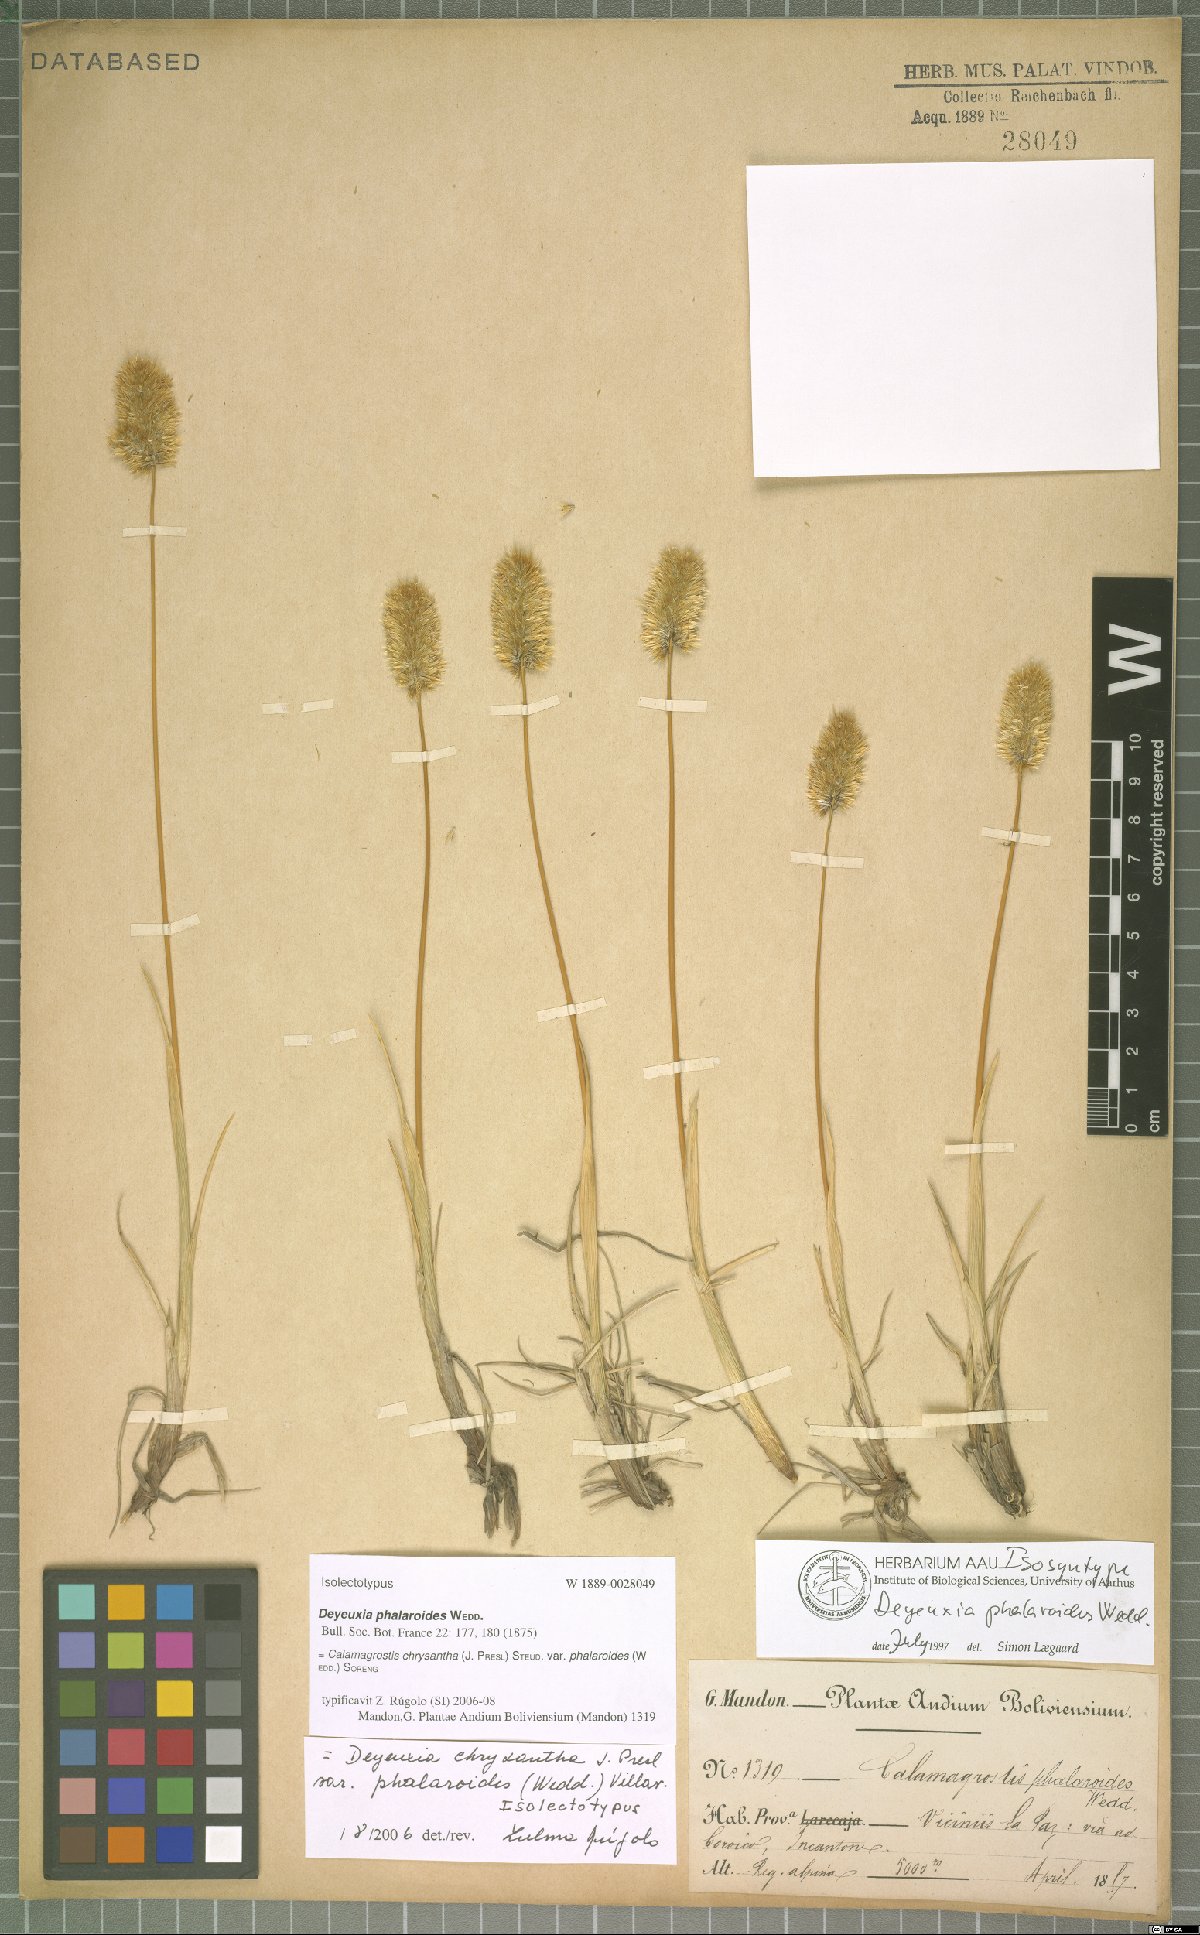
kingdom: Plantae
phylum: Tracheophyta
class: Liliopsida
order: Poales
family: Poaceae
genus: Deschampsia
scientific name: Deschampsia chrysantha
